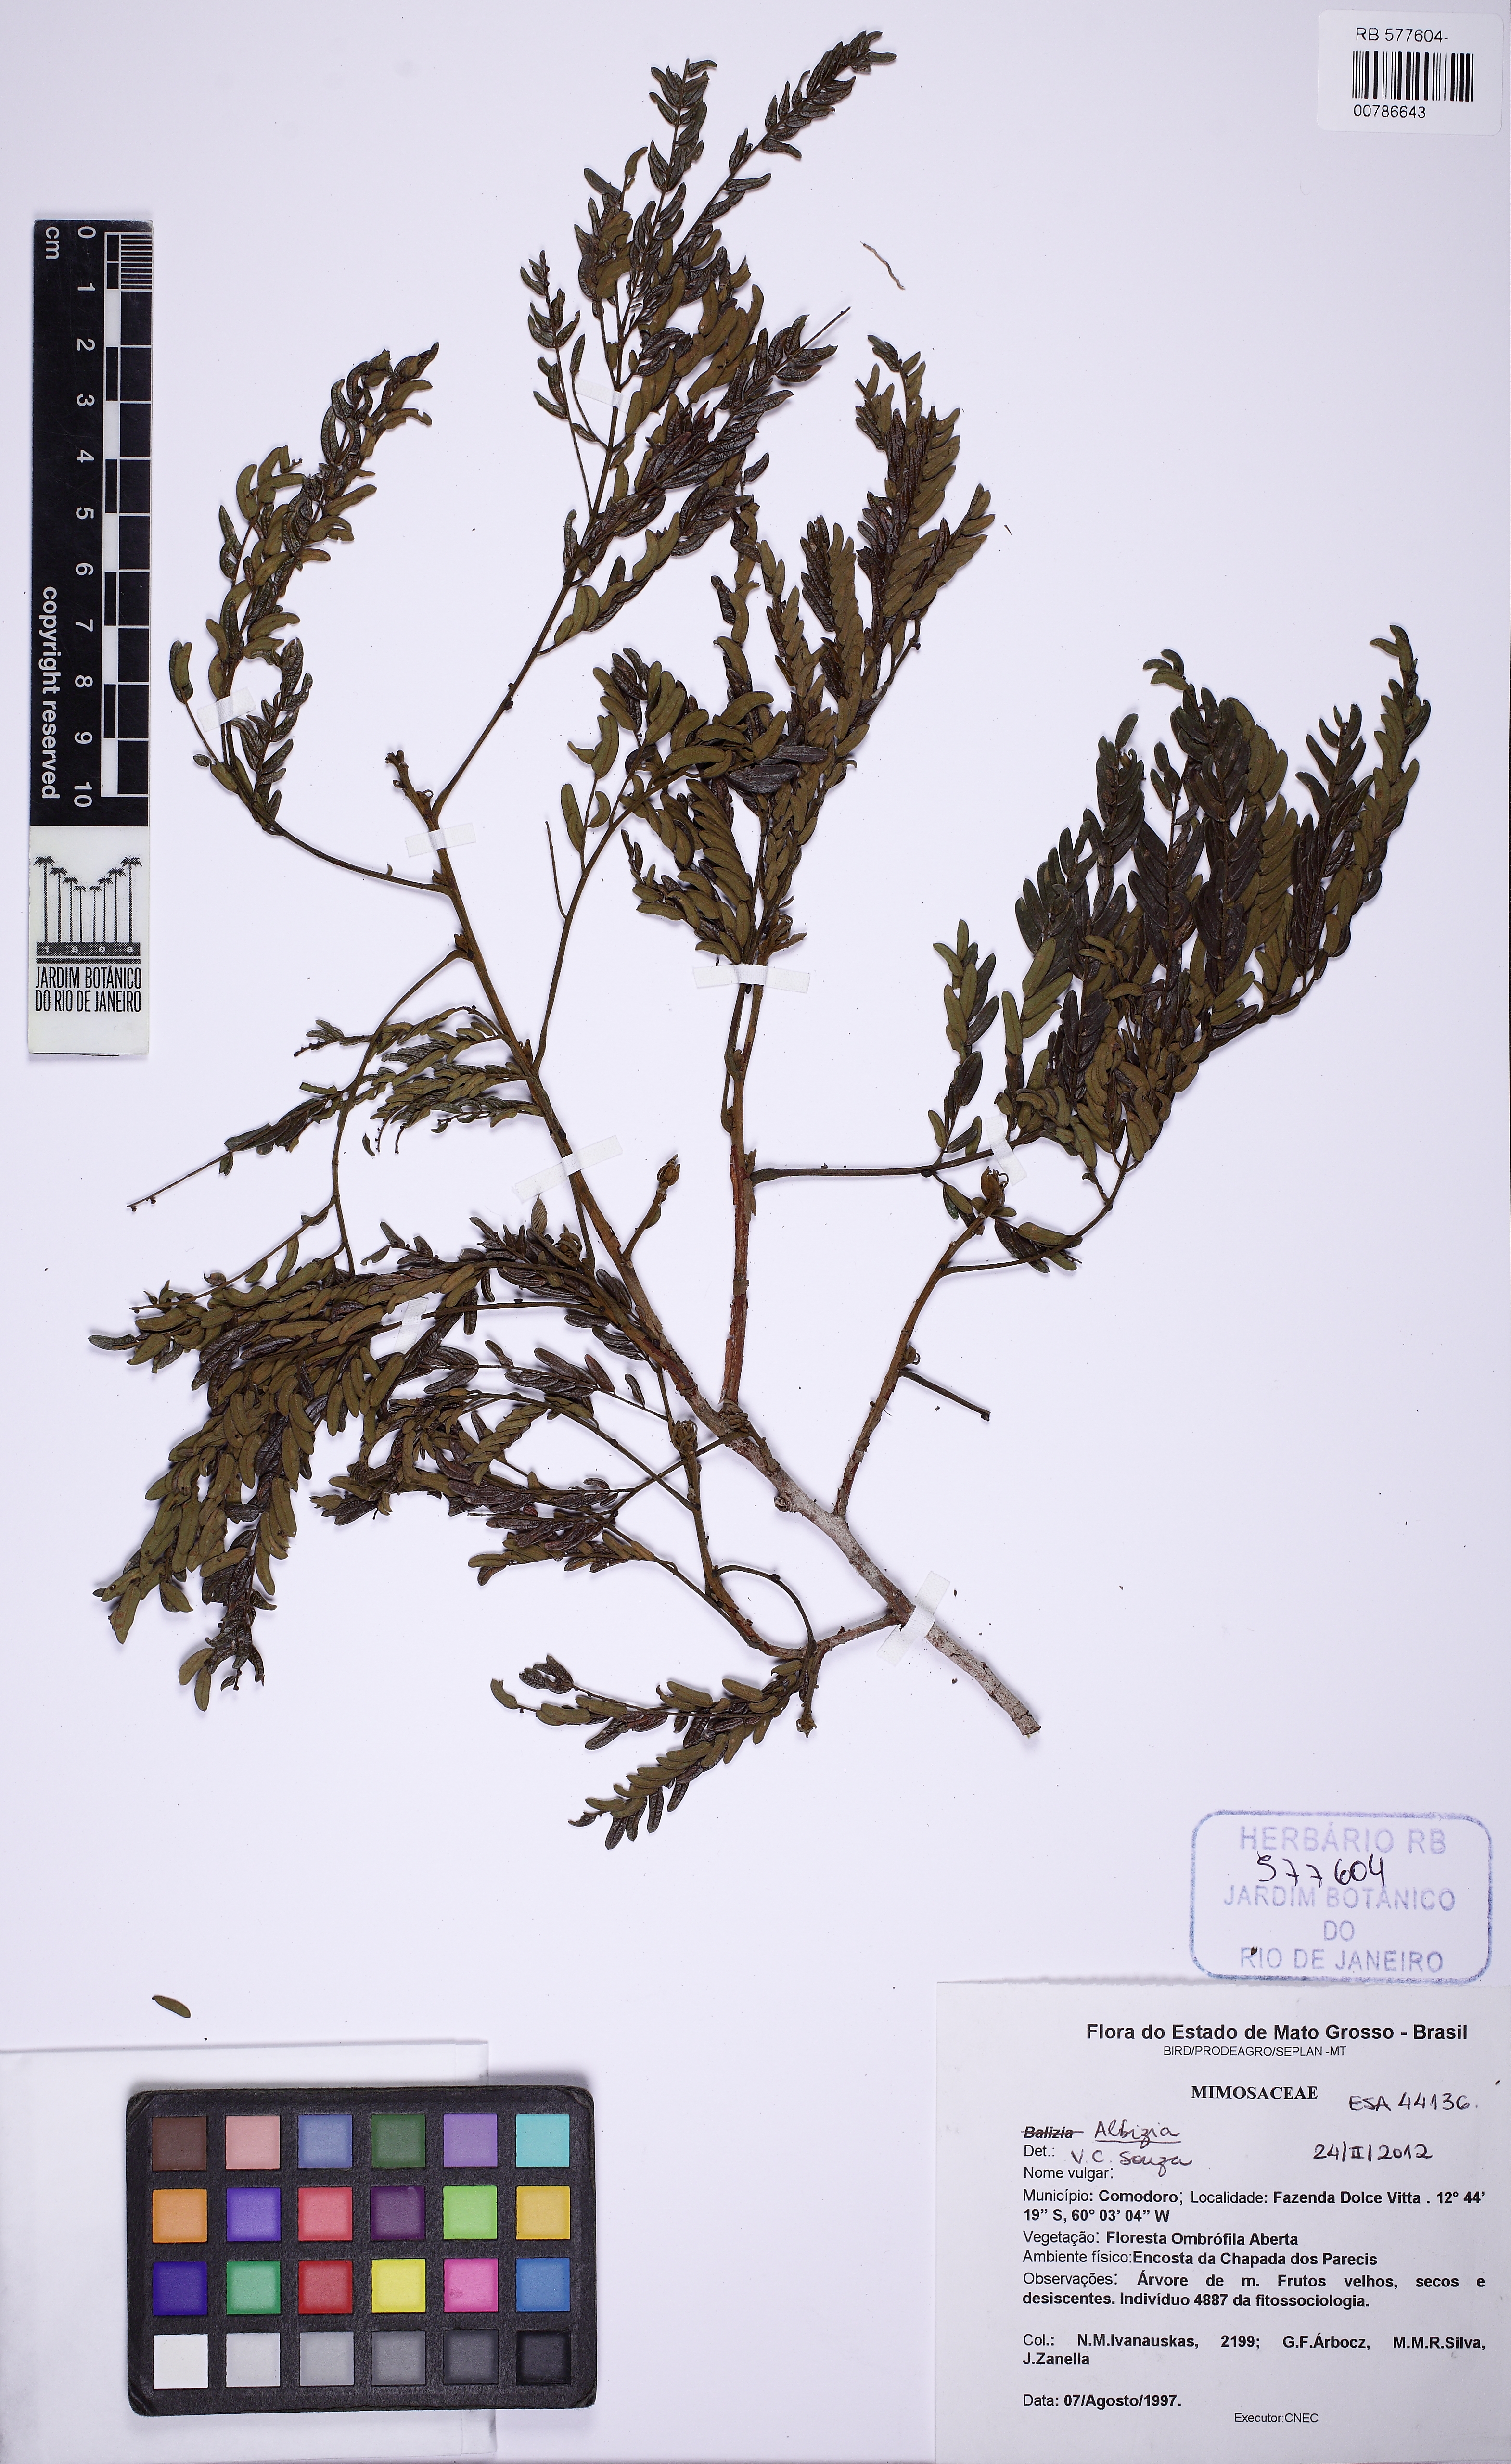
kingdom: Plantae
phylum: Tracheophyta
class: Magnoliopsida
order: Fabales
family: Fabaceae
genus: Albizia
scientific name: Albizia
